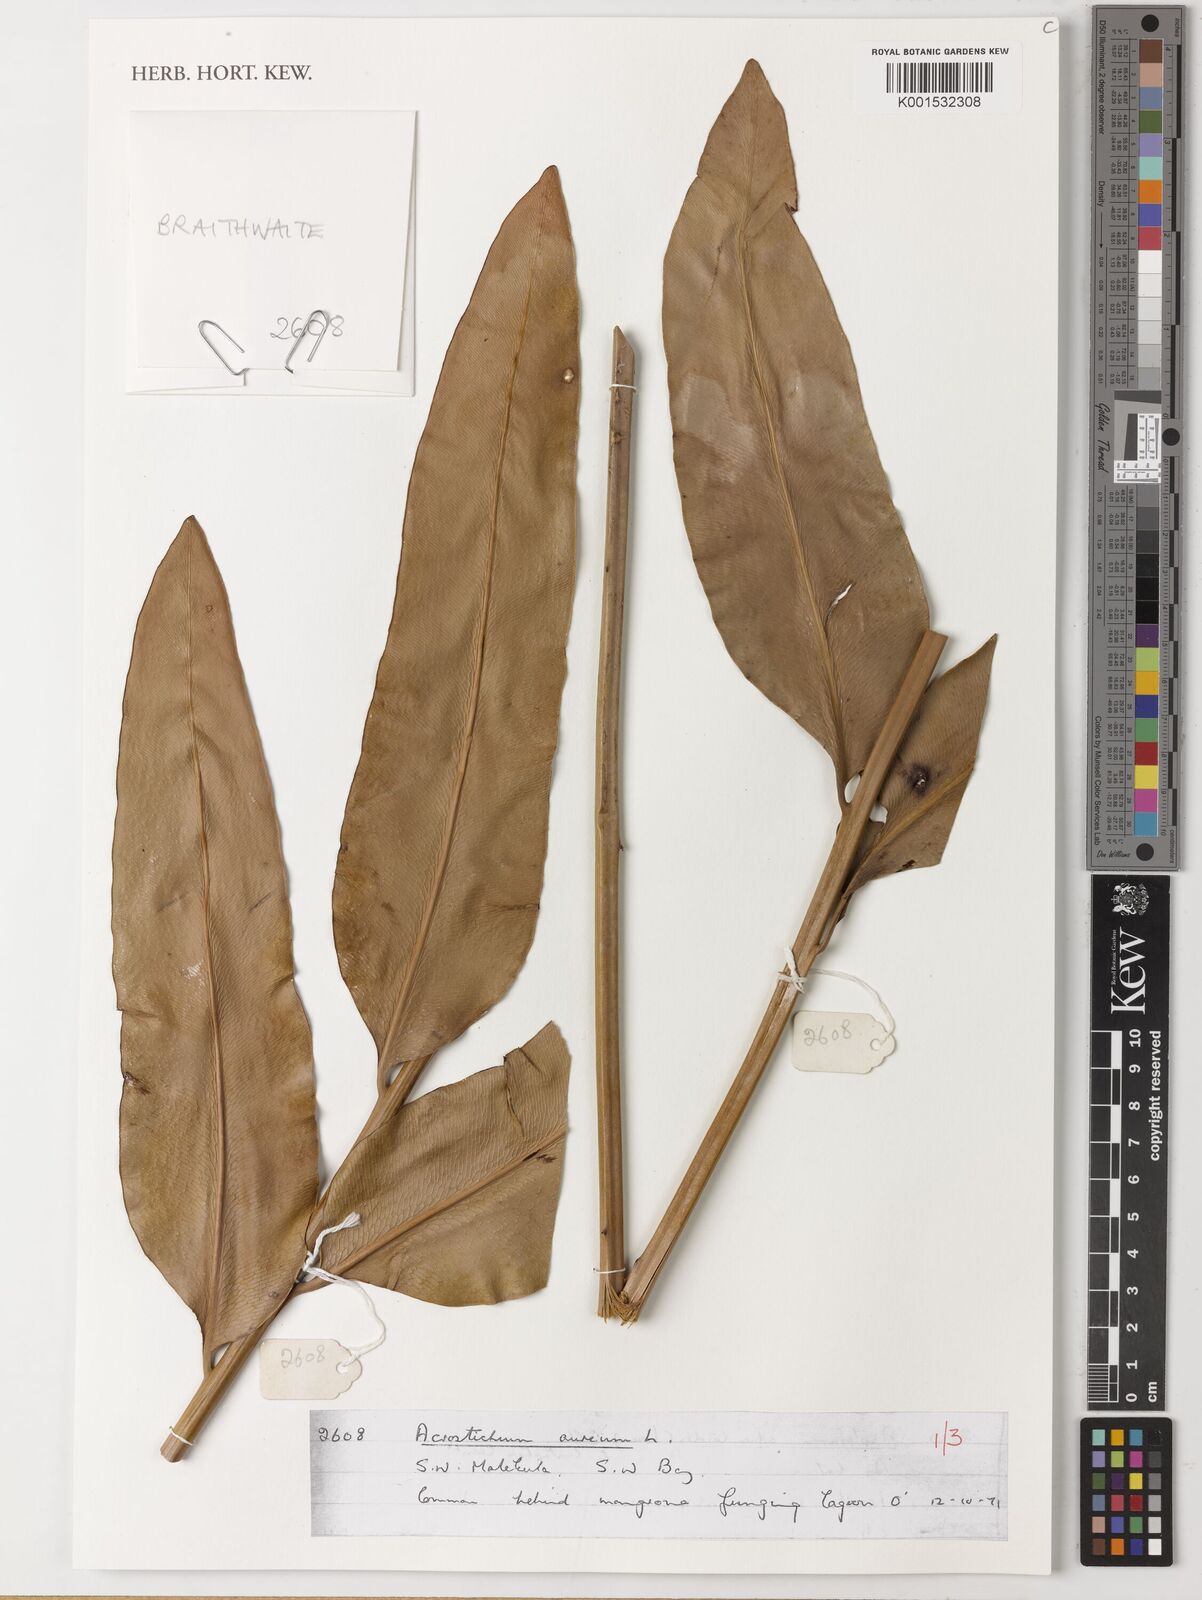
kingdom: Plantae
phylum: Tracheophyta
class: Polypodiopsida
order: Polypodiales
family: Pteridaceae
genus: Acrostichum
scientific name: Acrostichum aureum
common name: Leather fern
